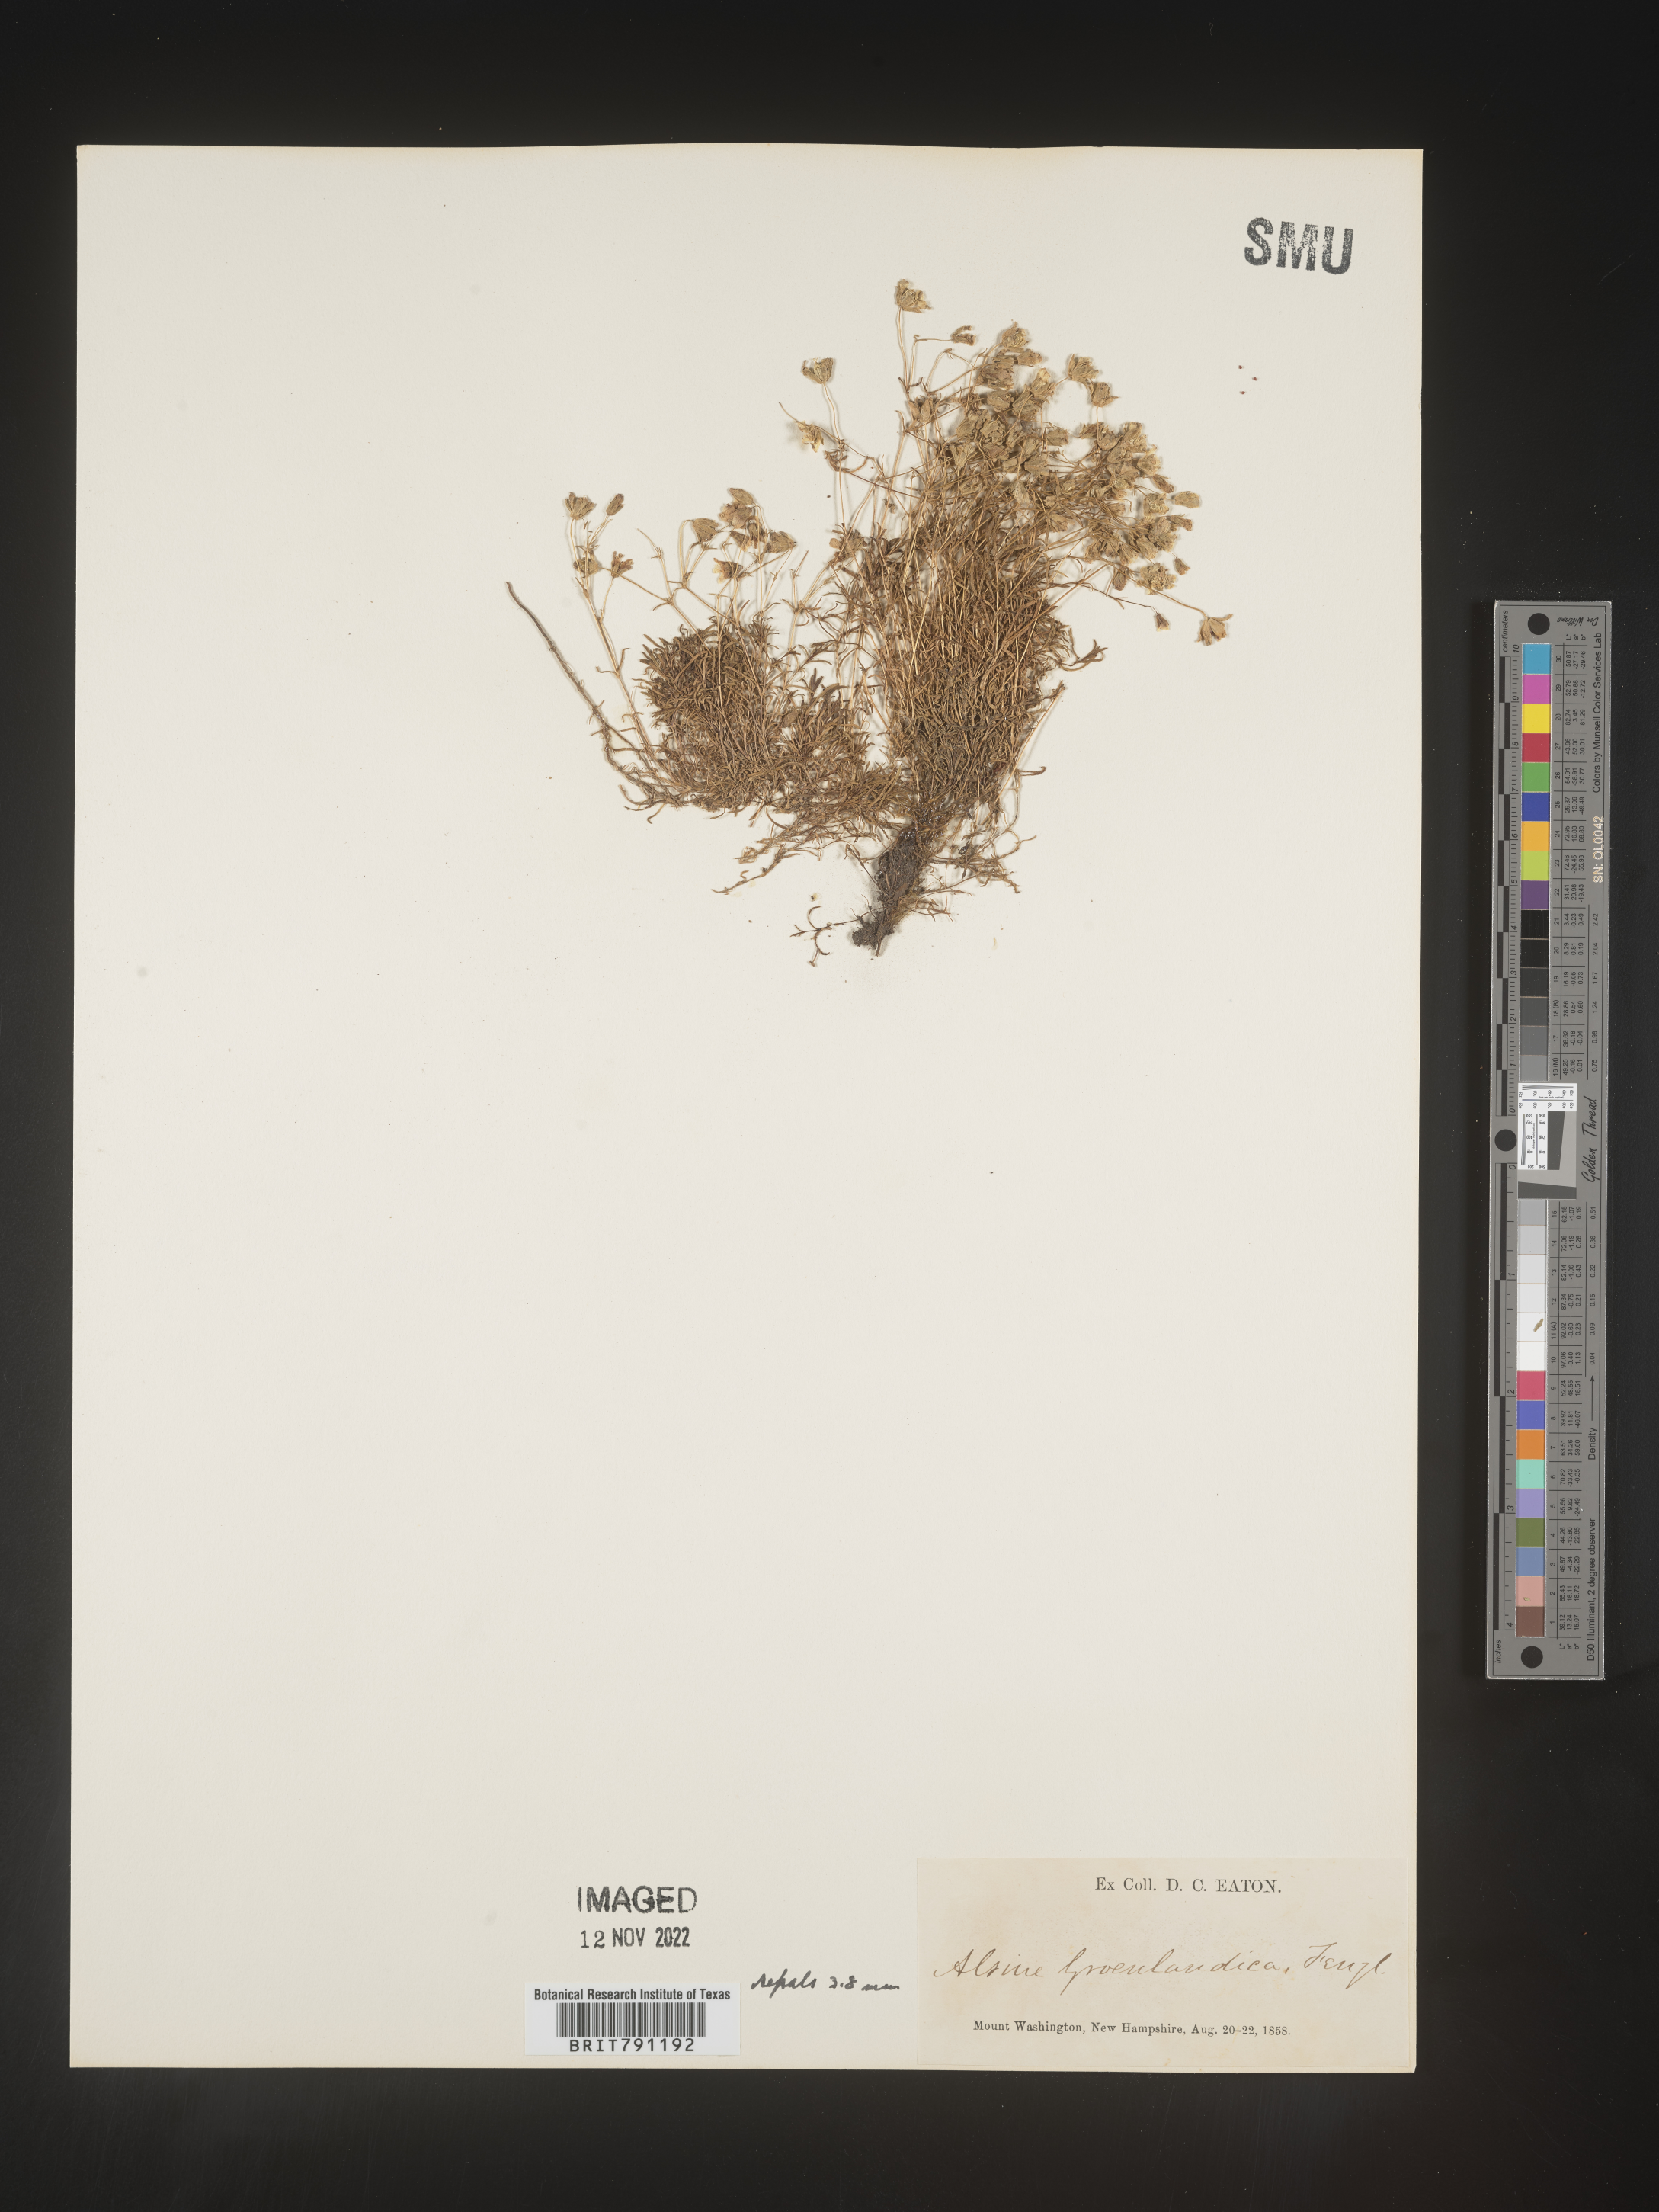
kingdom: Plantae
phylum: Tracheophyta
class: Magnoliopsida
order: Caryophyllales
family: Caryophyllaceae
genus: Geocarpon
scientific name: Geocarpon groenlandicum
